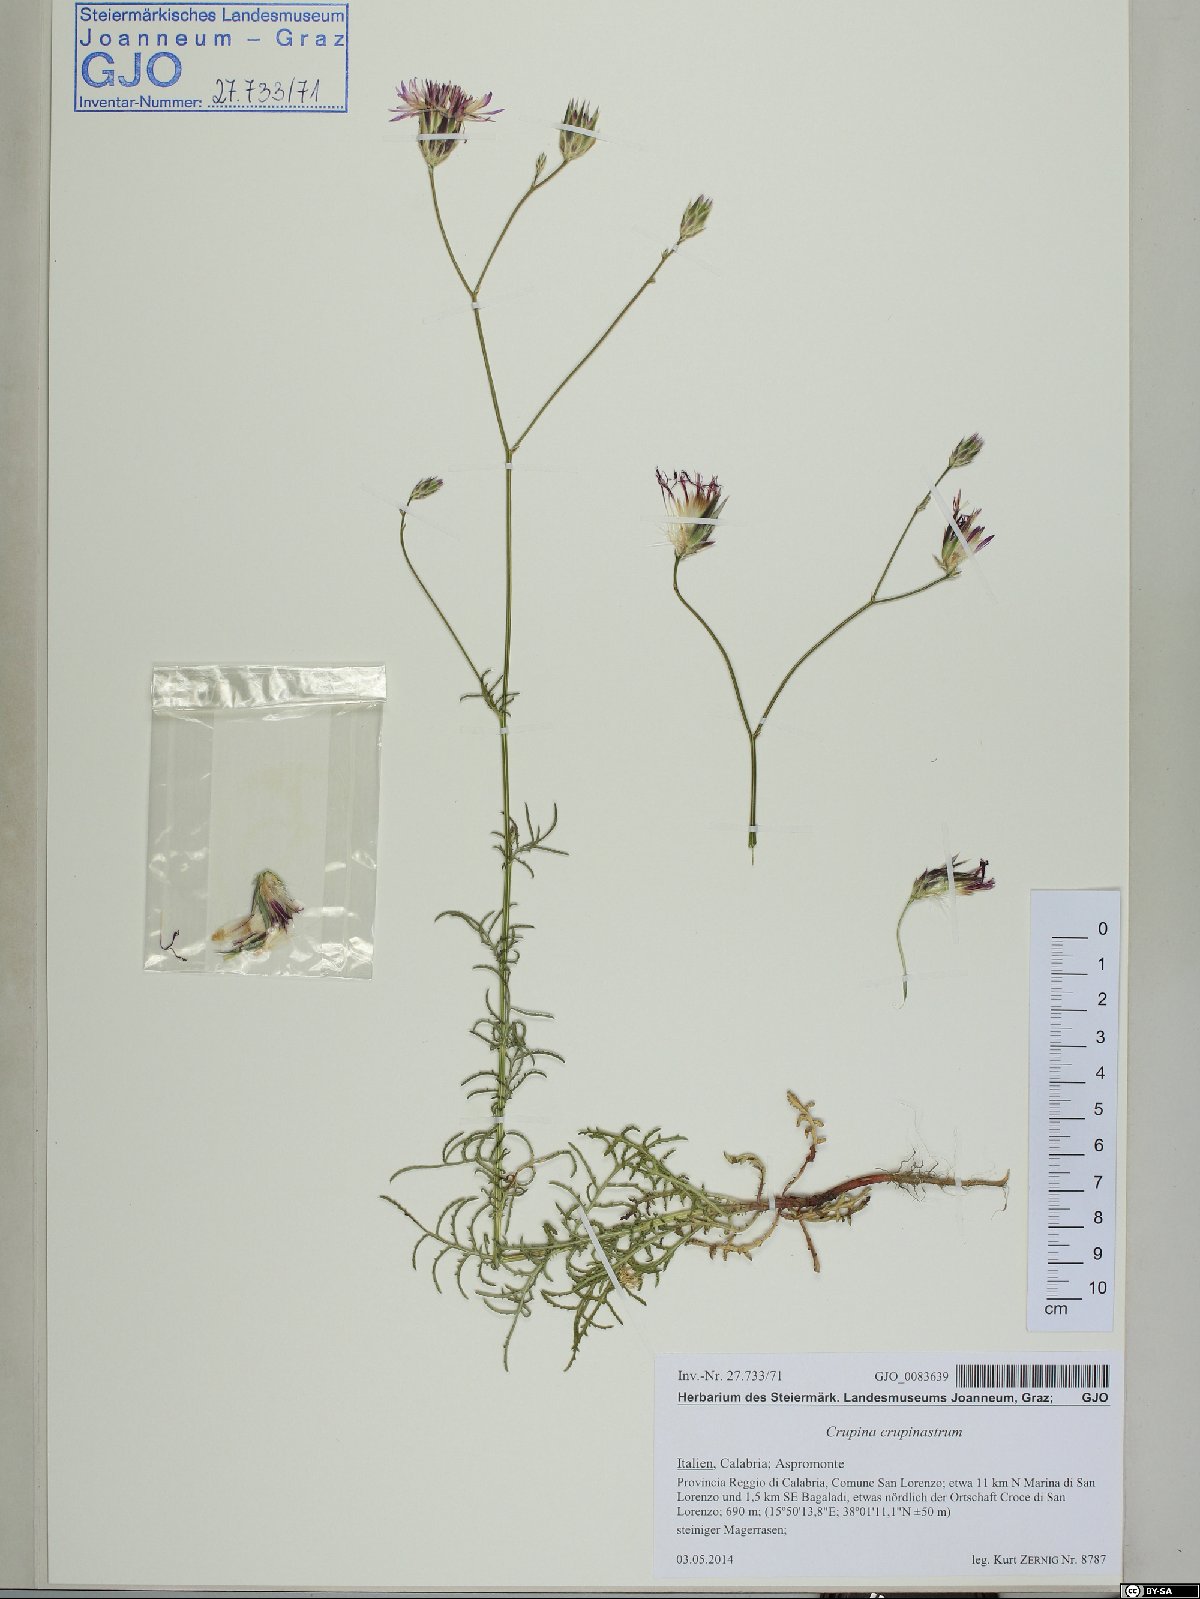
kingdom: Plantae
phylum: Tracheophyta
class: Magnoliopsida
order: Asterales
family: Asteraceae
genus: Crupina
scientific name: Crupina crupinastrum
